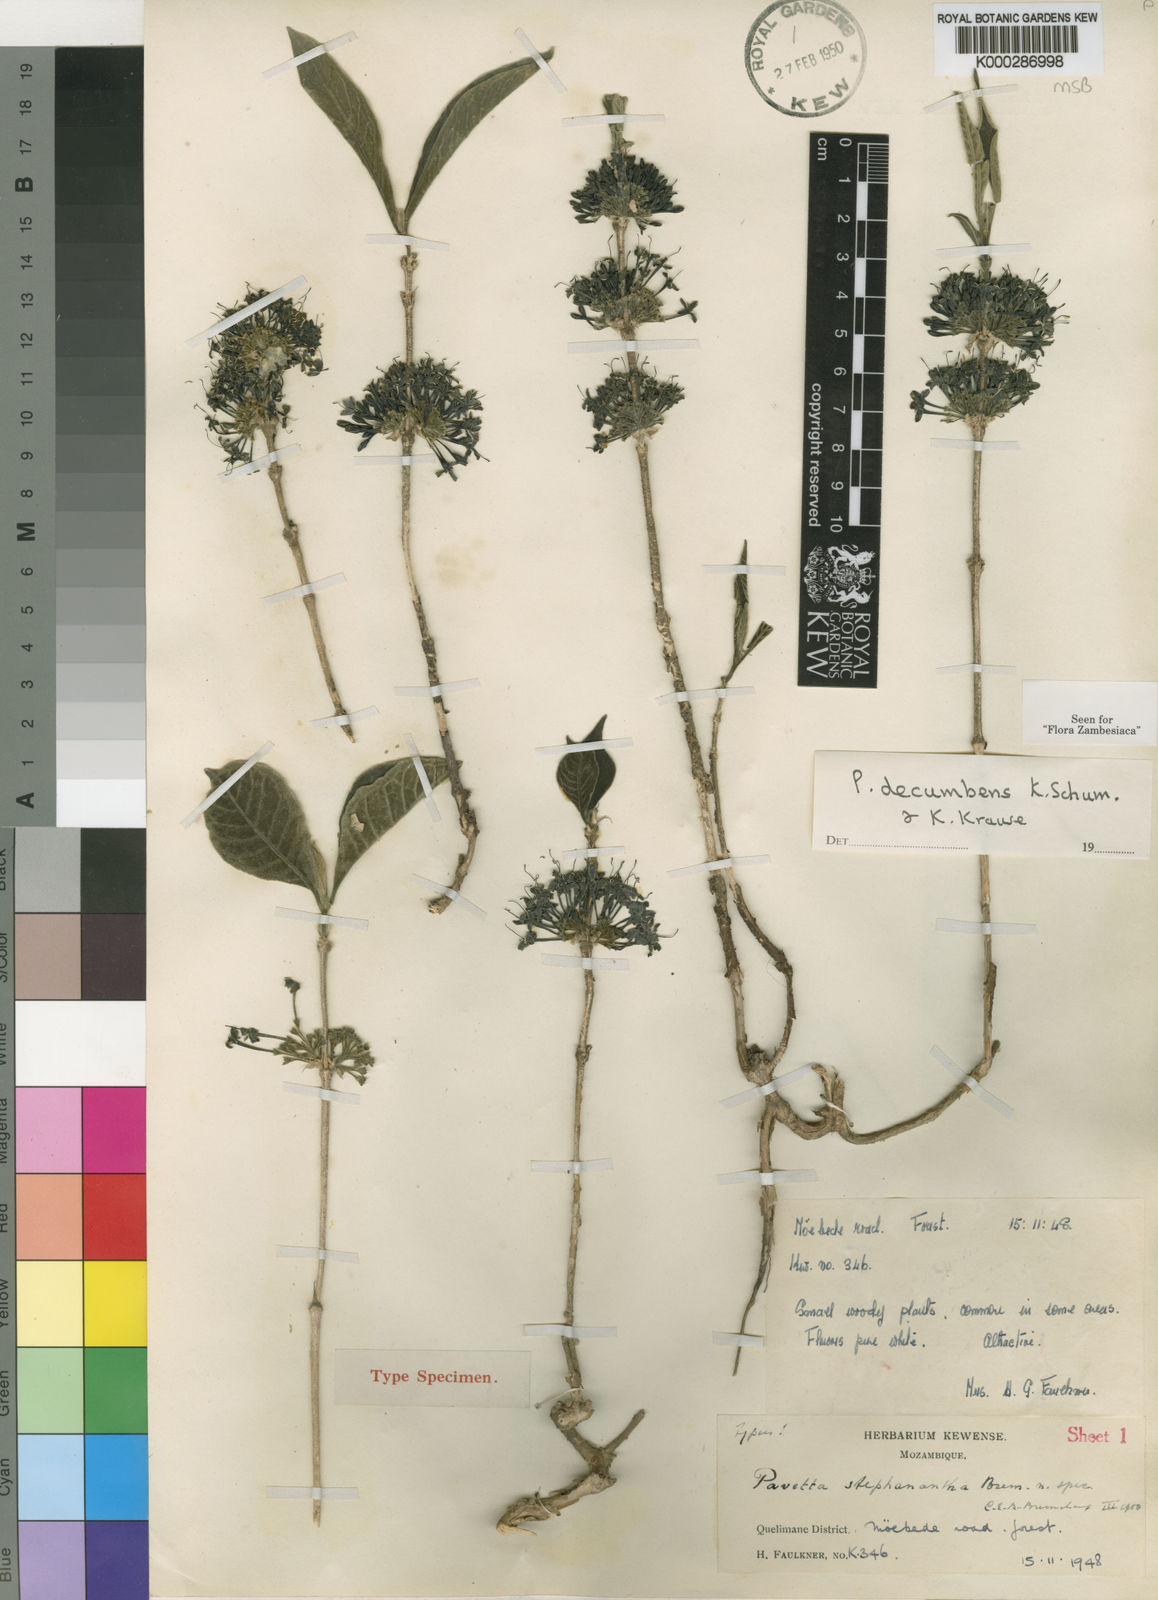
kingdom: Plantae
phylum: Tracheophyta
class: Magnoliopsida
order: Gentianales
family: Rubiaceae
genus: Pavetta
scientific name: Pavetta decumbens
